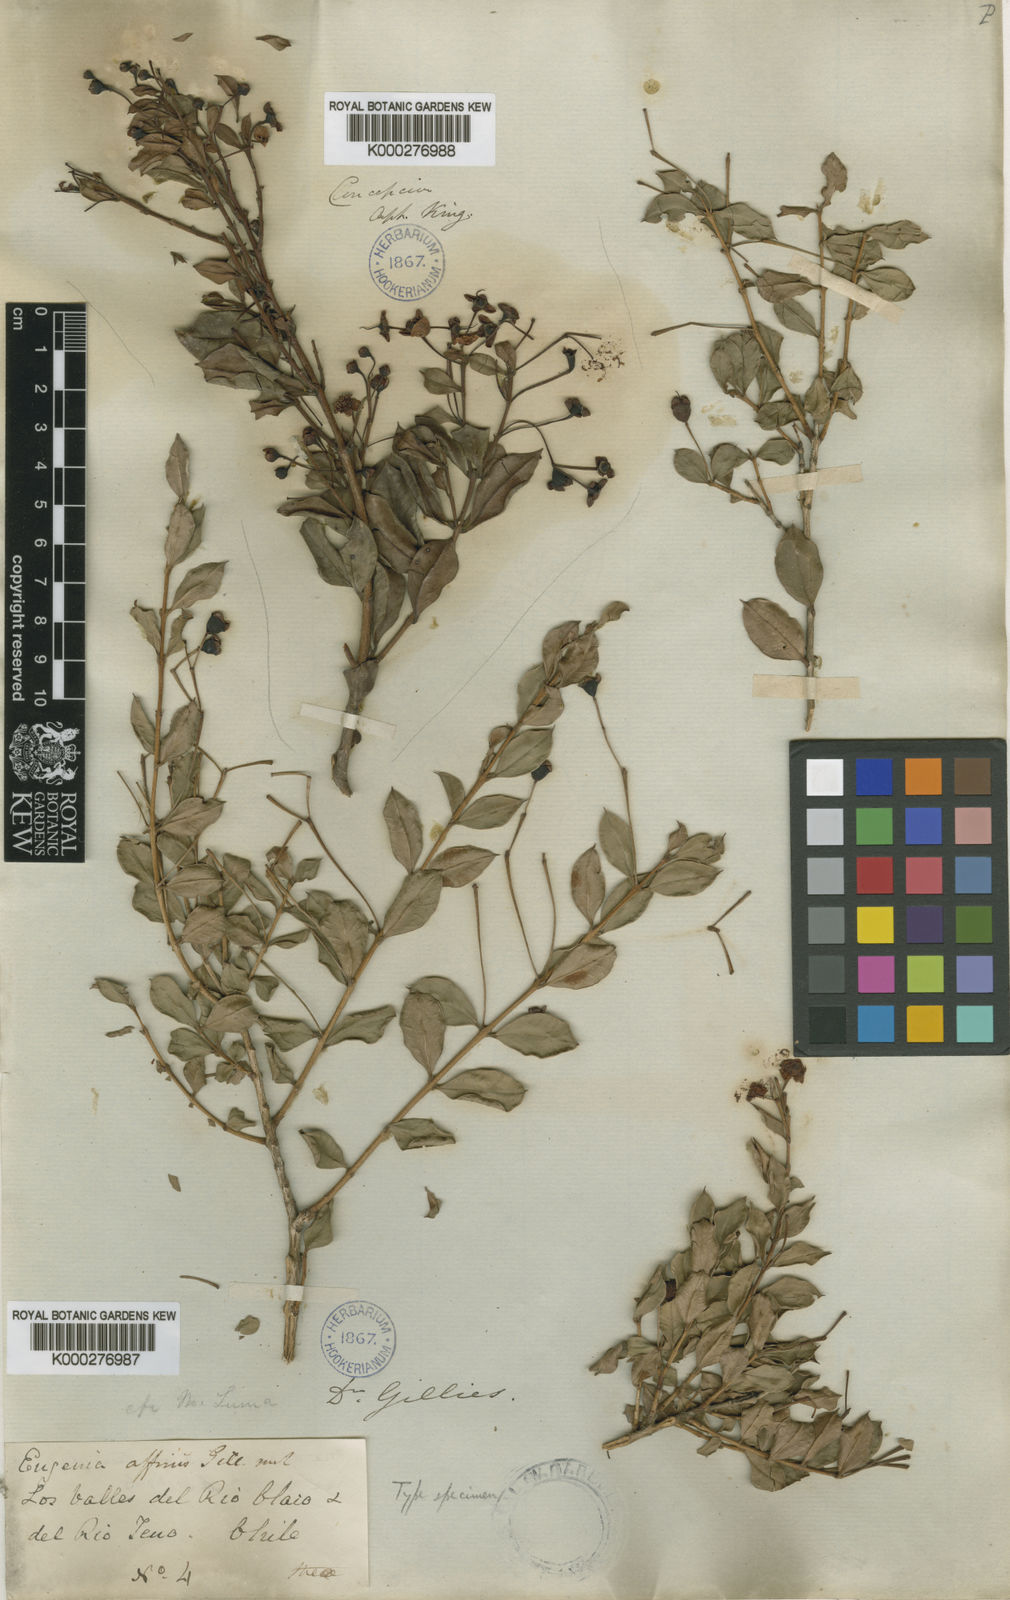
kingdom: Plantae
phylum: Tracheophyta
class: Magnoliopsida
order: Myrtales
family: Myrtaceae
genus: Luma
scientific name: Luma apiculata
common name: Chilean myrtle
